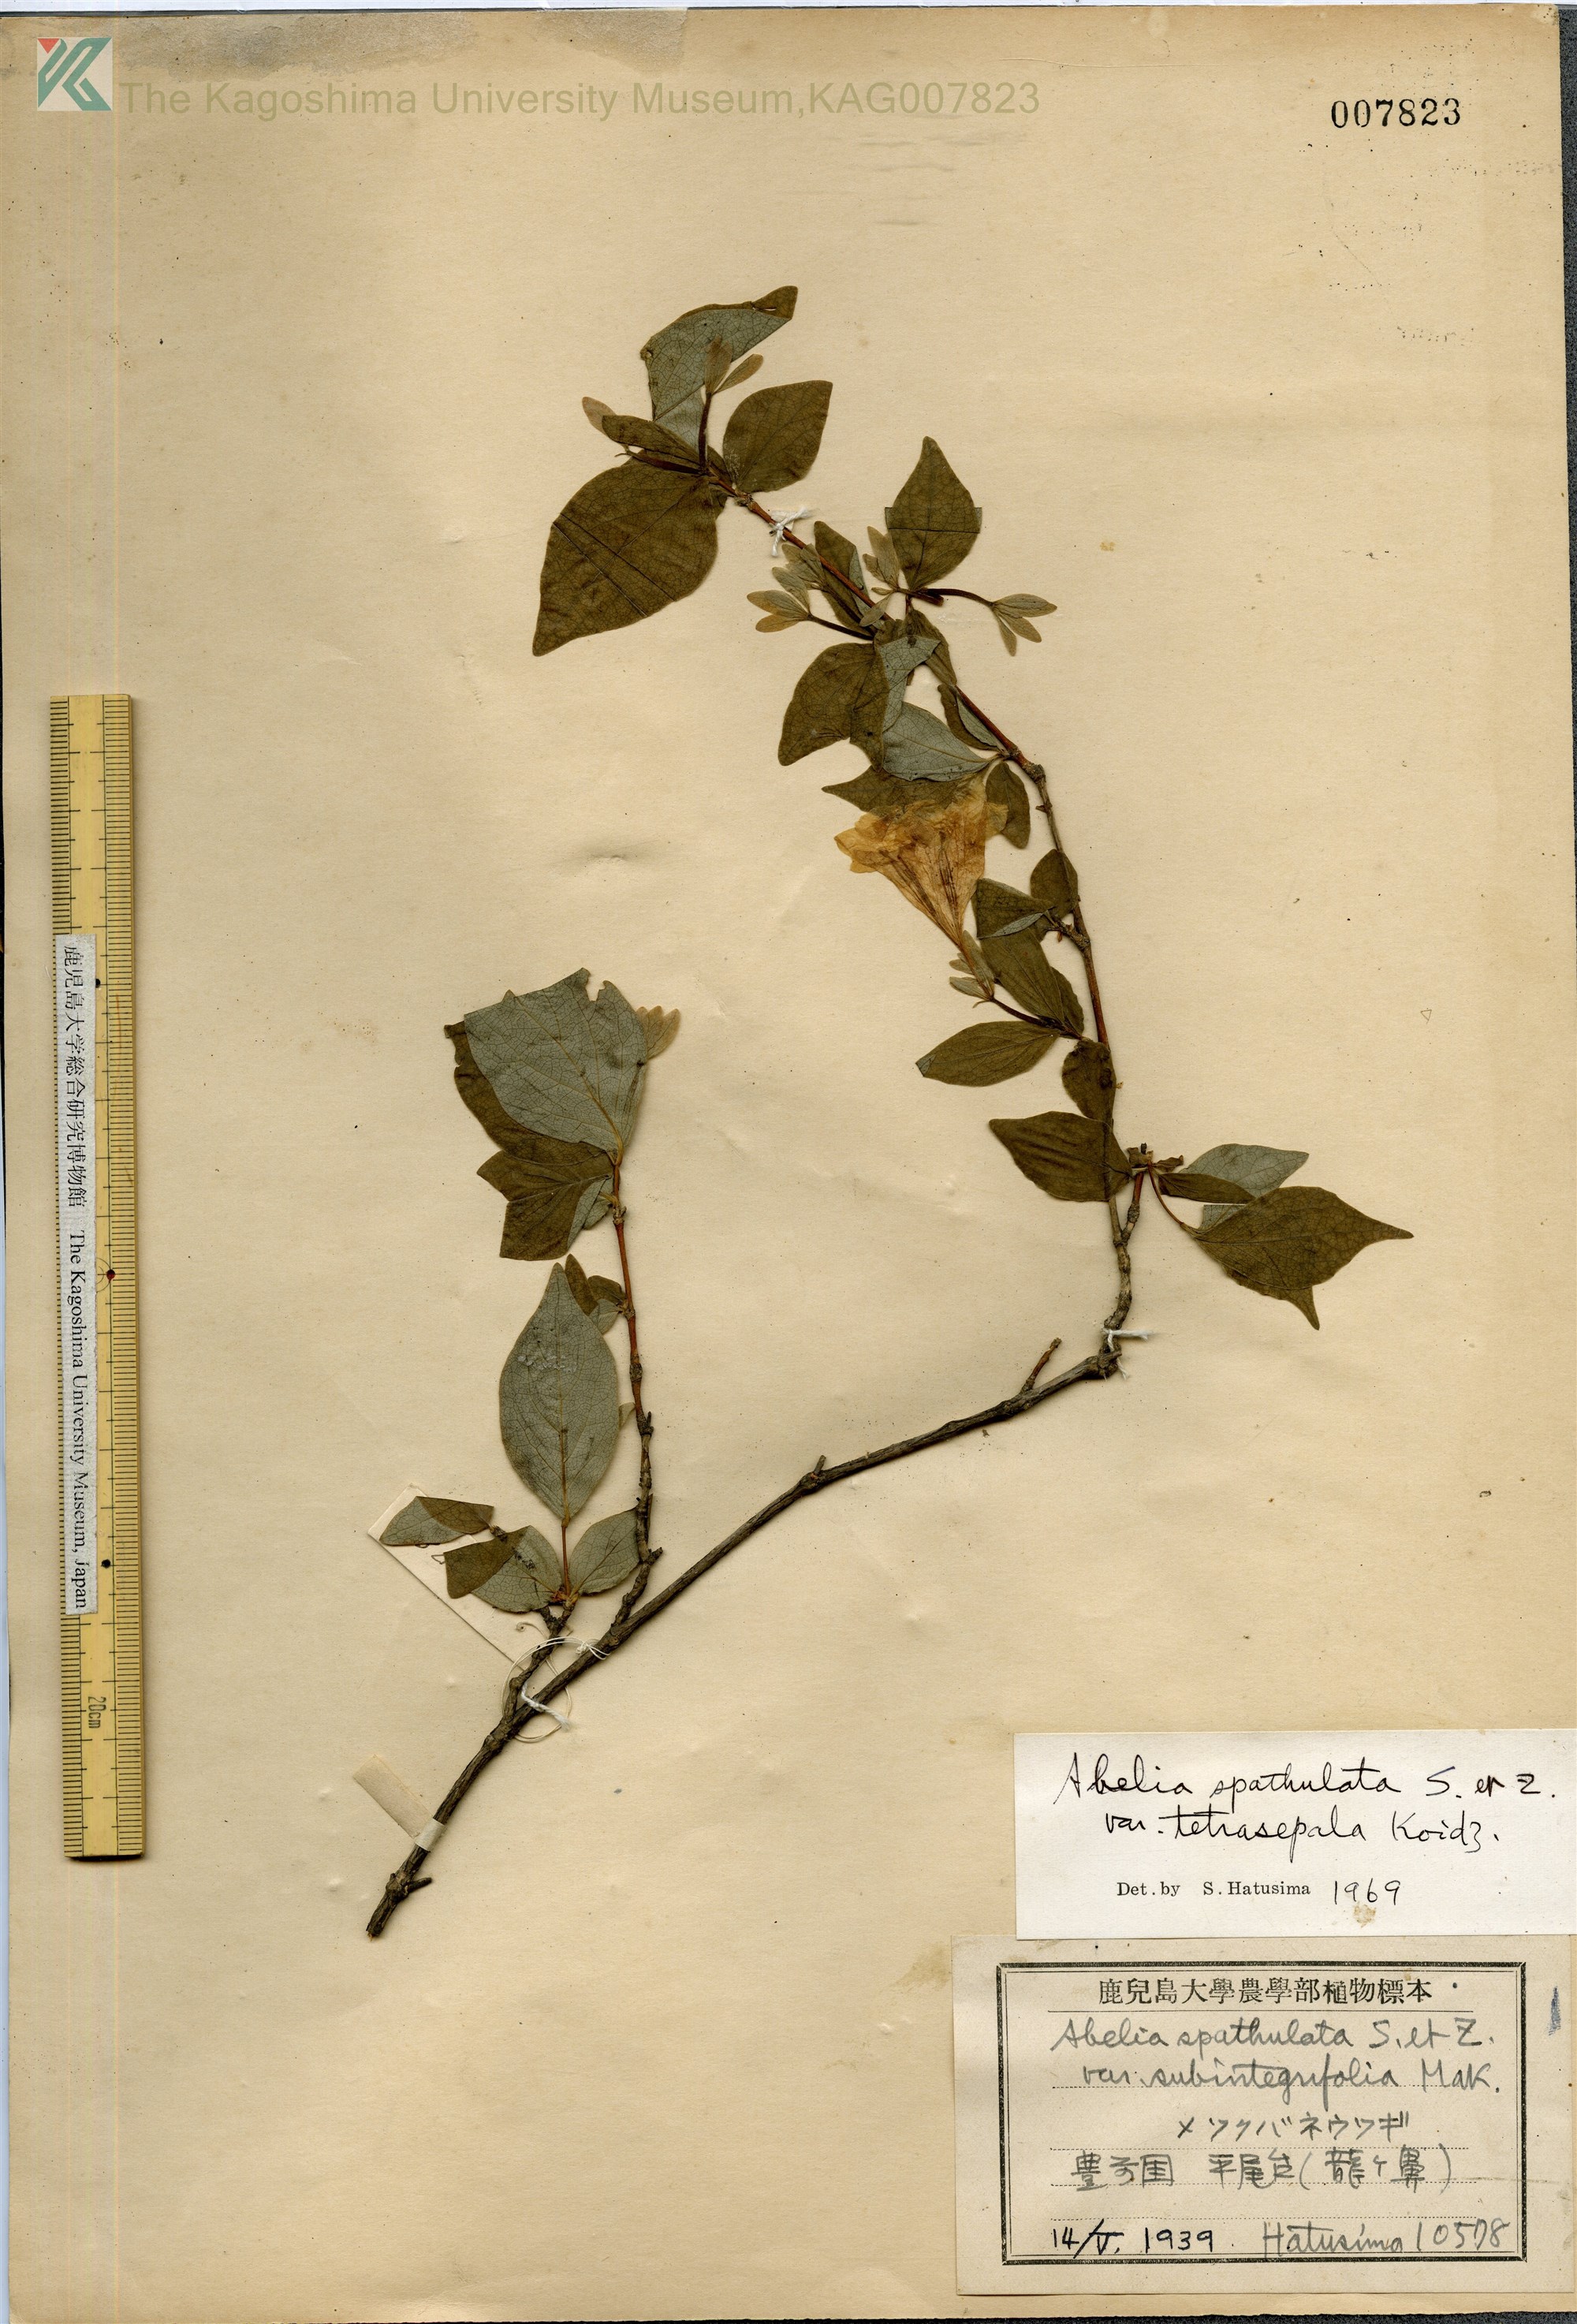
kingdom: Plantae
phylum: Tracheophyta
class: Magnoliopsida
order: Dipsacales
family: Caprifoliaceae
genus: Diabelia
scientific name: Diabelia ionostachya
